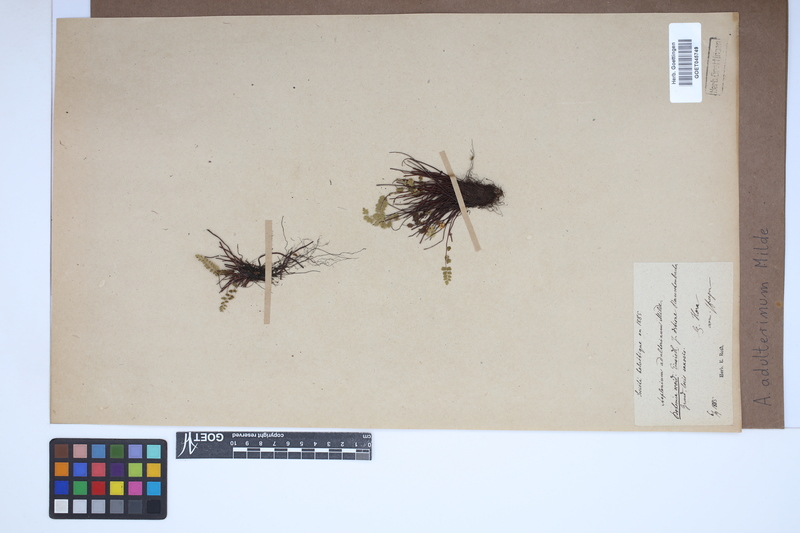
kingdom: Plantae
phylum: Tracheophyta
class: Polypodiopsida
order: Polypodiales
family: Aspleniaceae
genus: Asplenium
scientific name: Asplenium adulterinum
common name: Adulterated spleenwort
